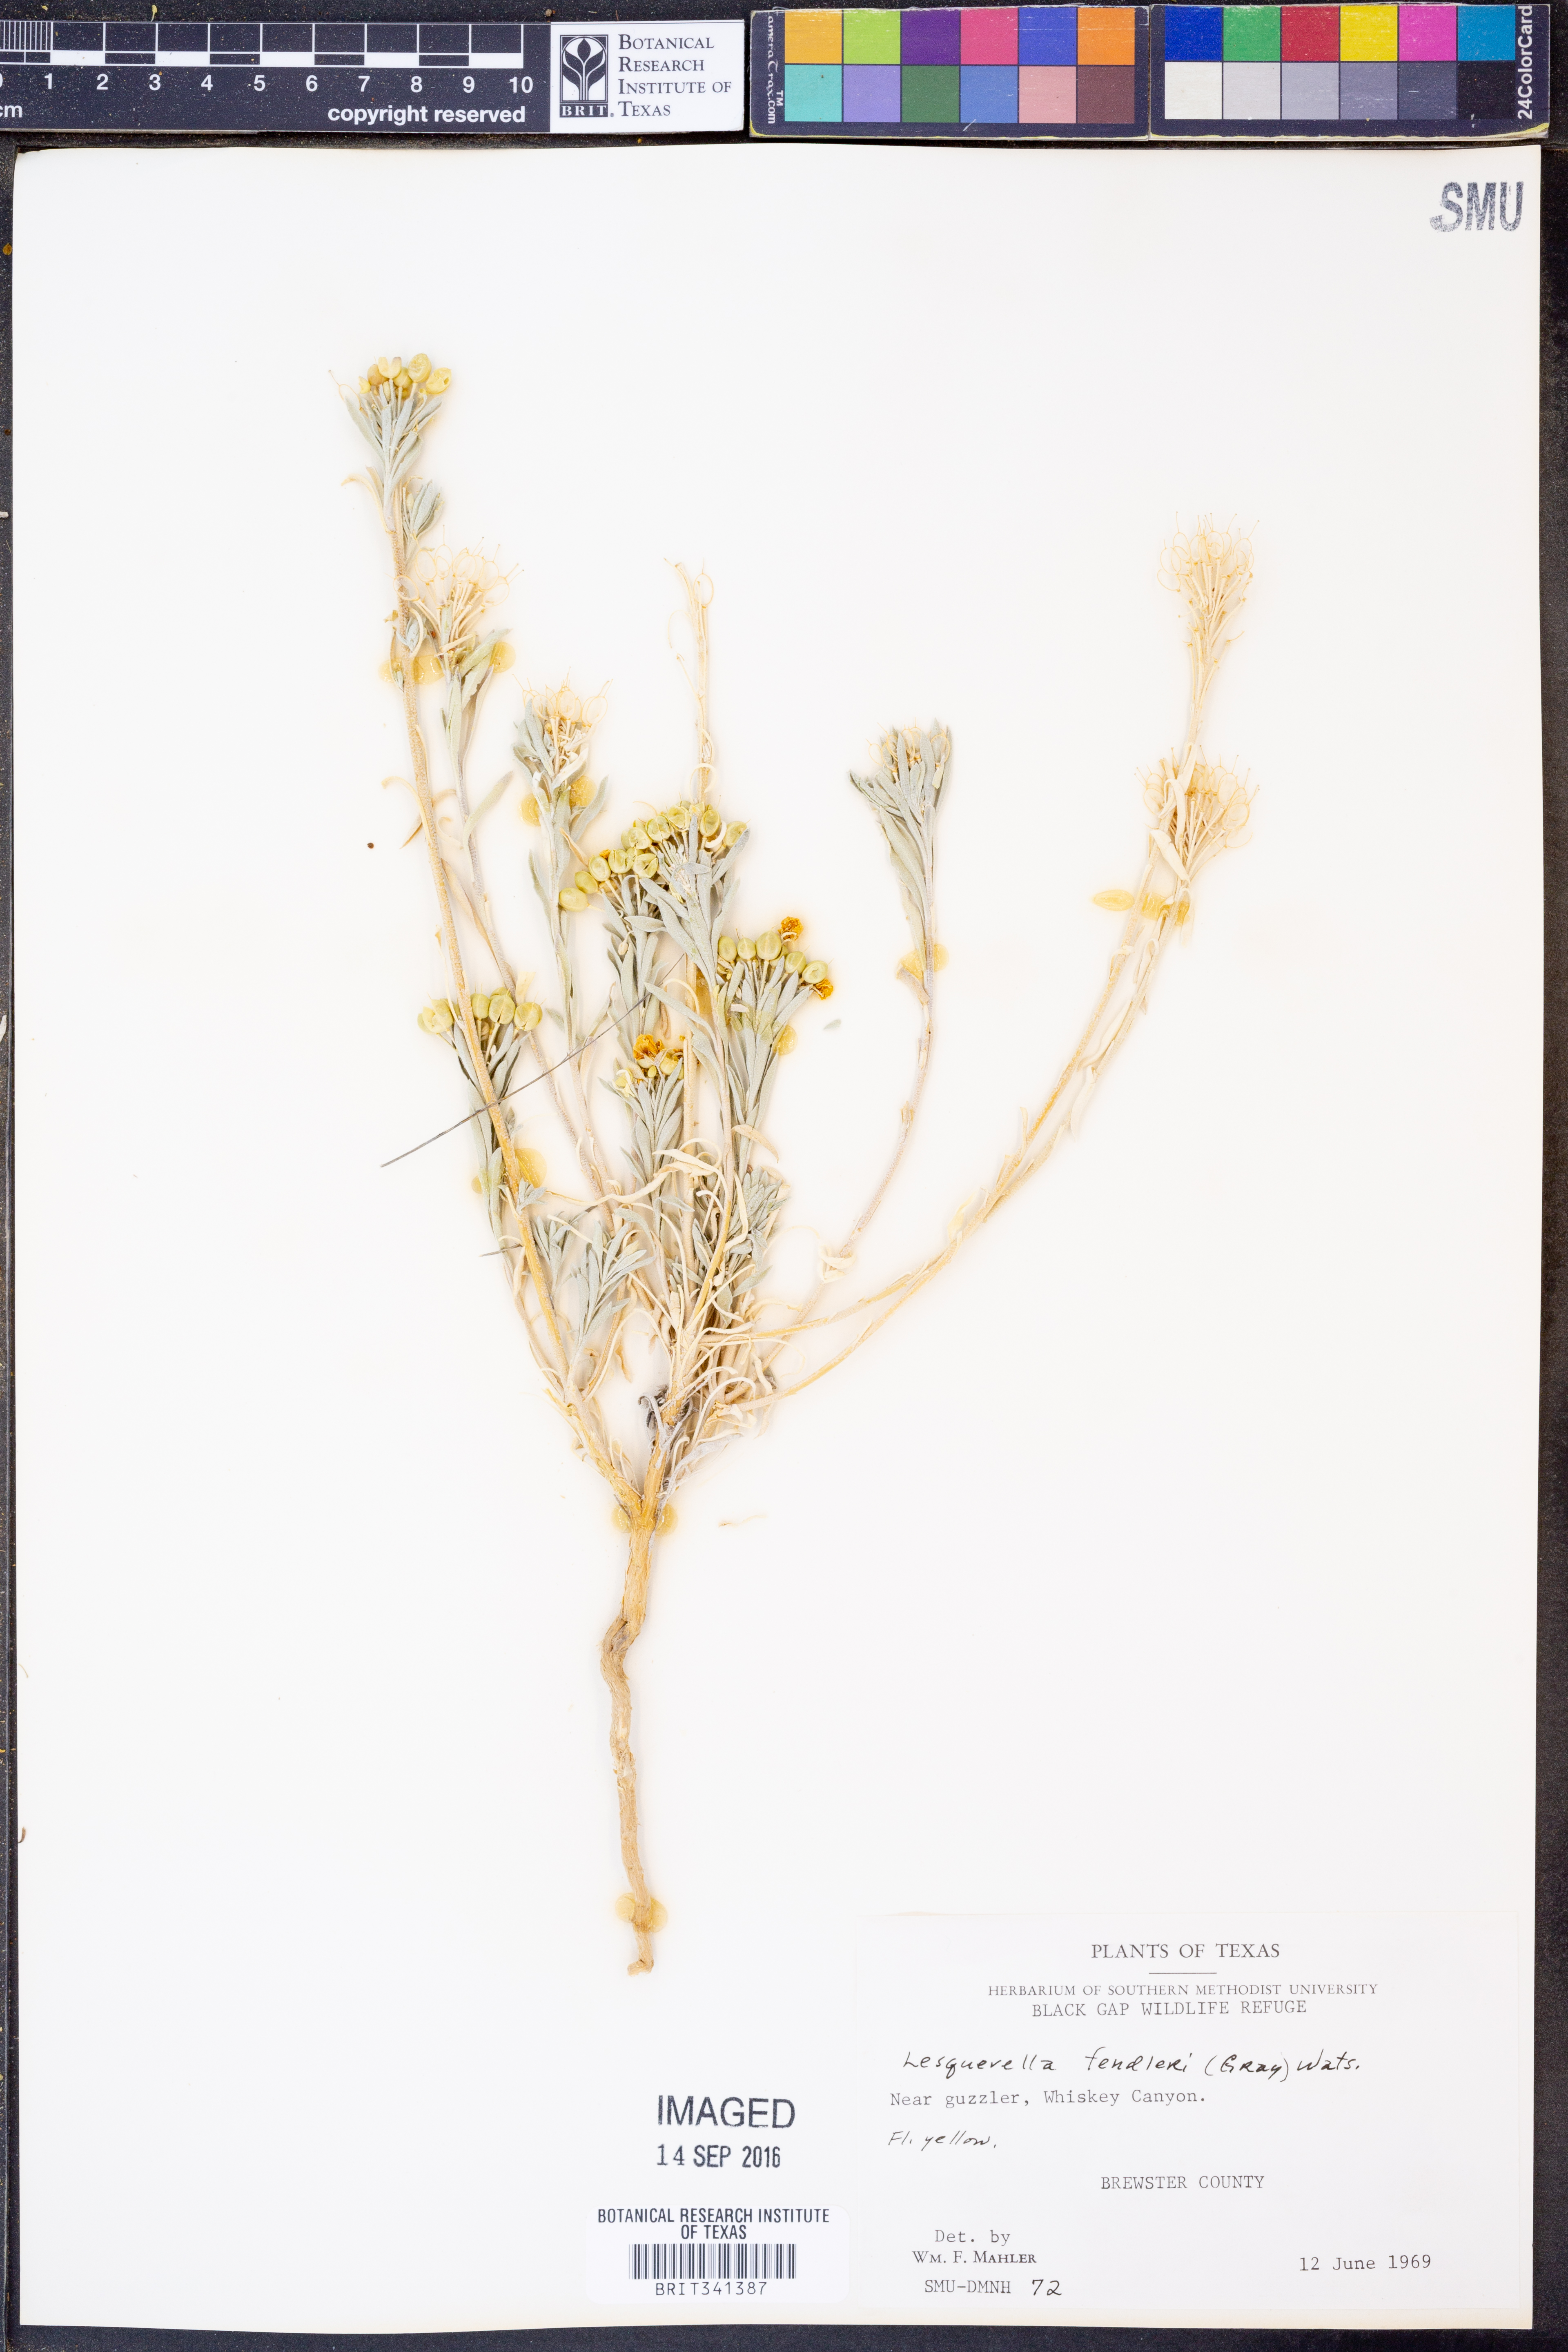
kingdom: Plantae
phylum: Tracheophyta
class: Magnoliopsida
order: Asterales
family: Asteraceae
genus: Solidago
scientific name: Solidago
